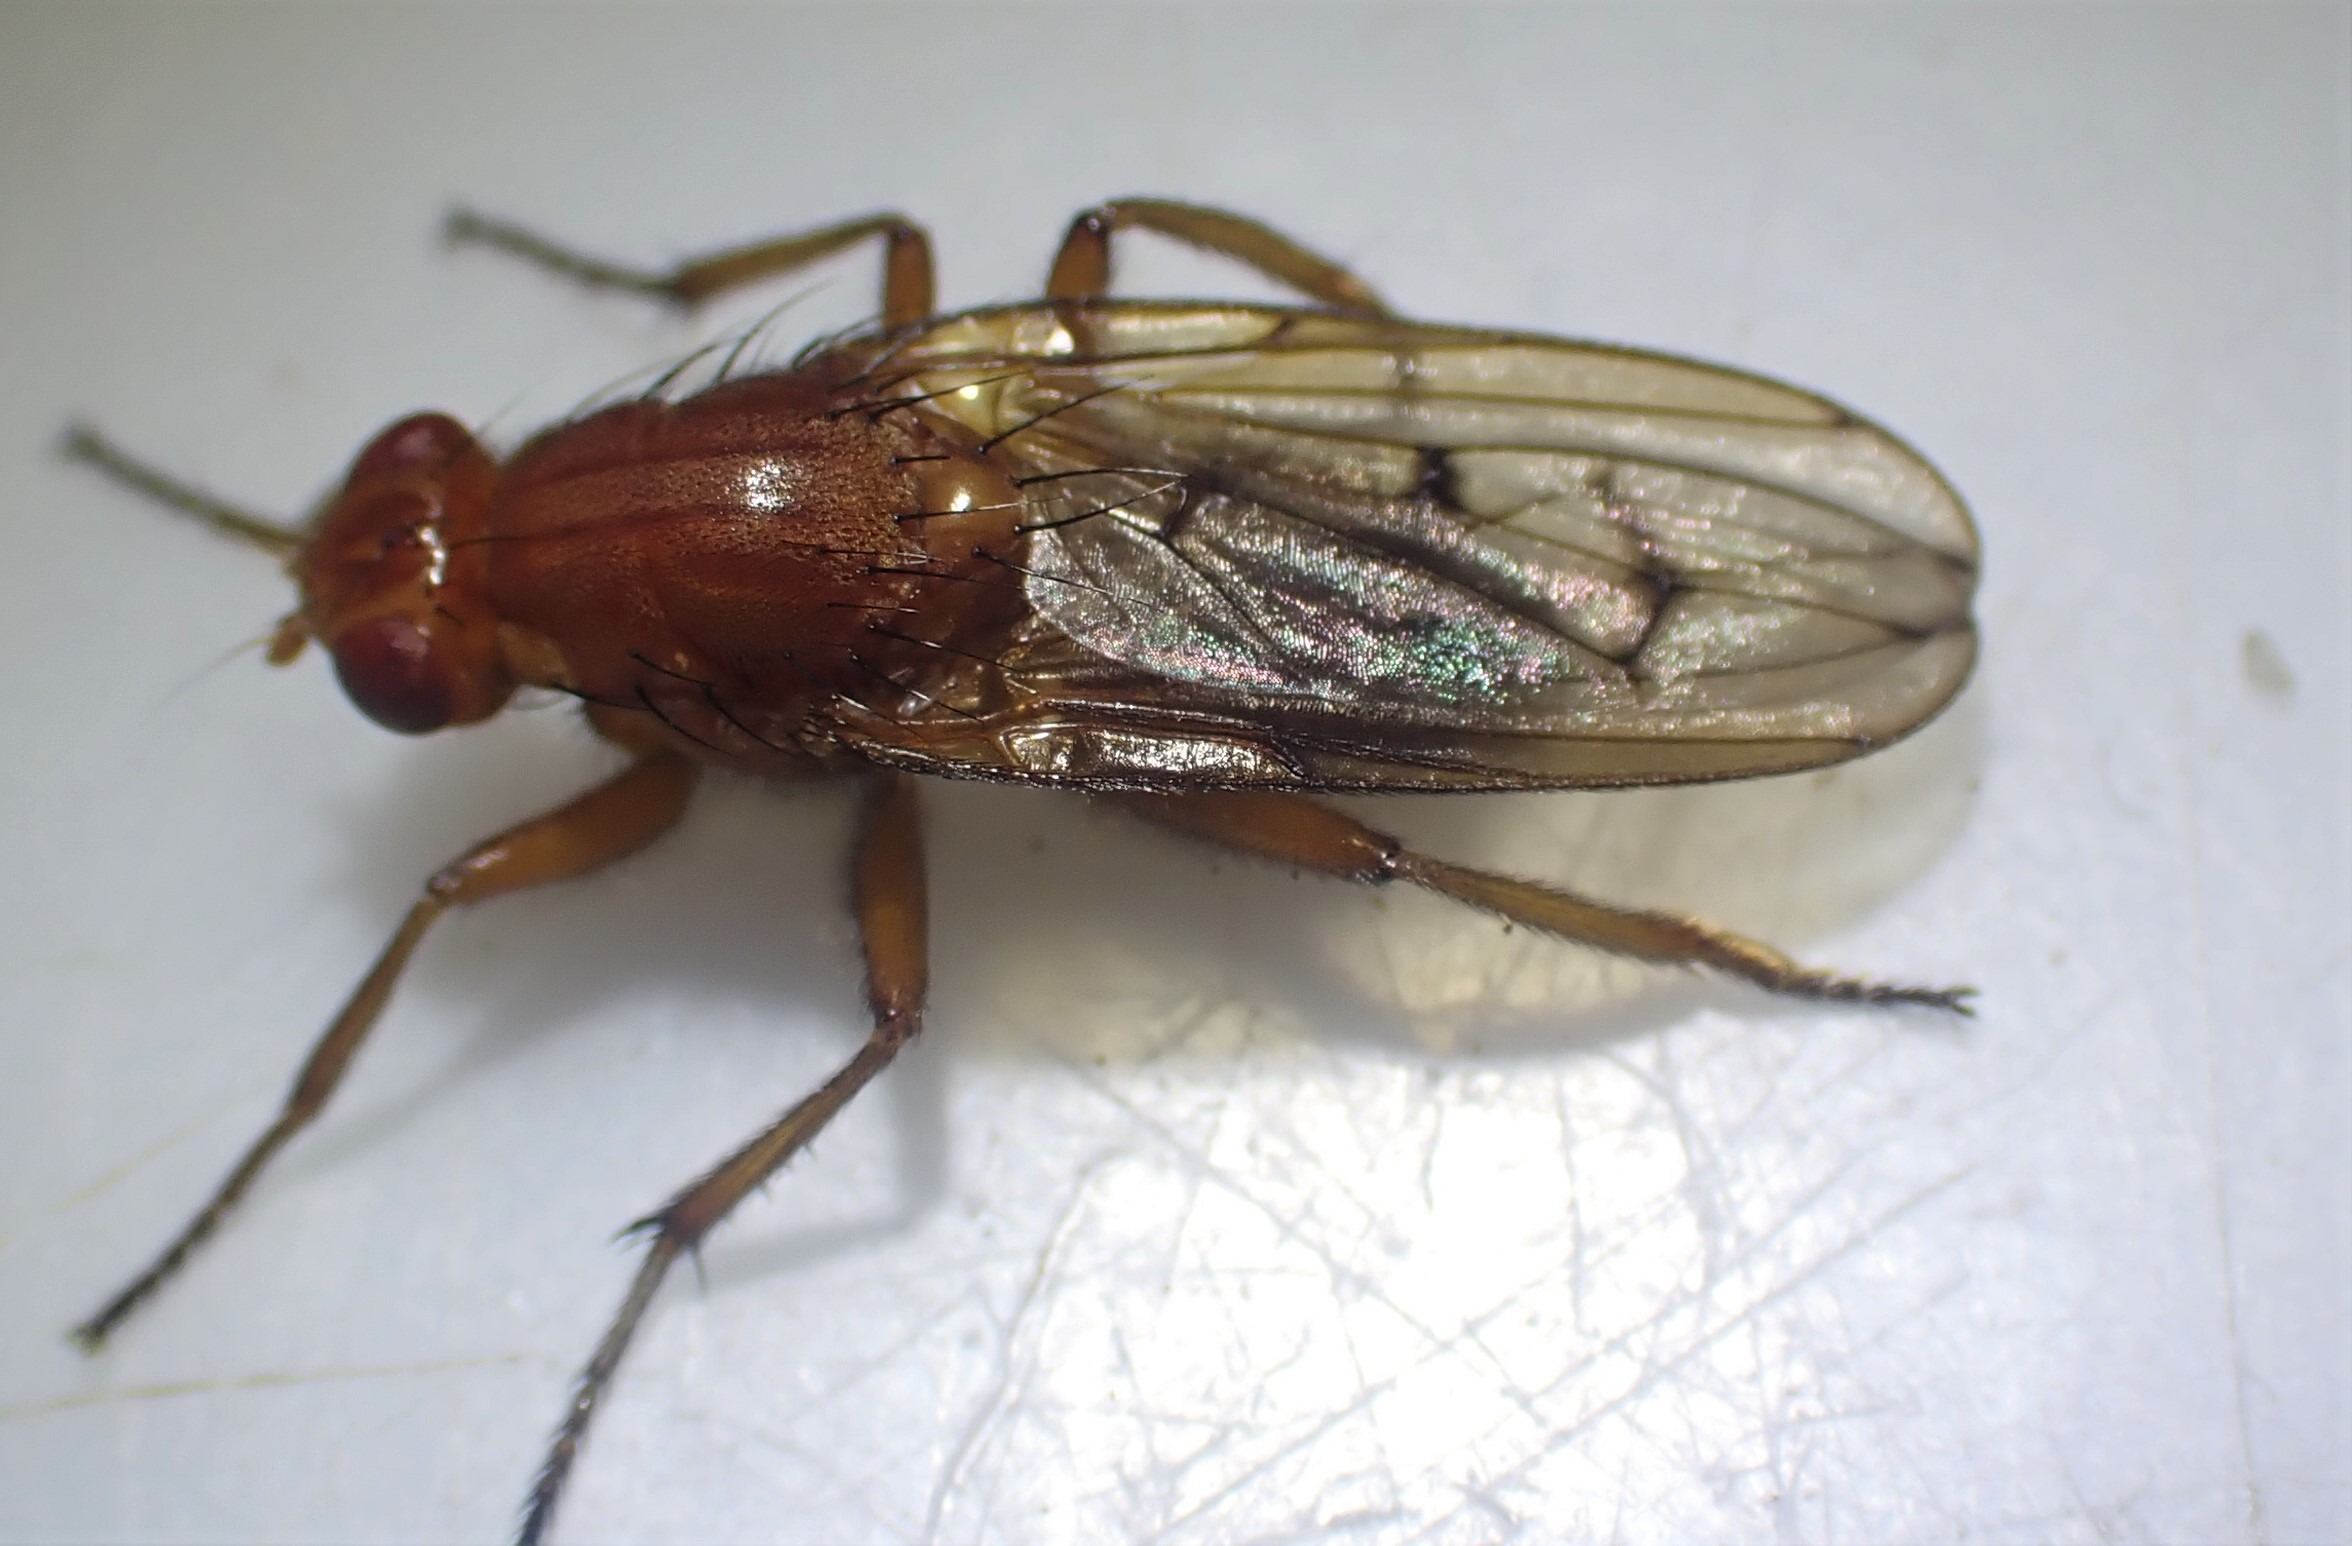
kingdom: Animalia
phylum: Arthropoda
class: Insecta
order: Diptera
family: Dryomyzidae
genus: Dryomyza
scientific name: Dryomyza anilis
